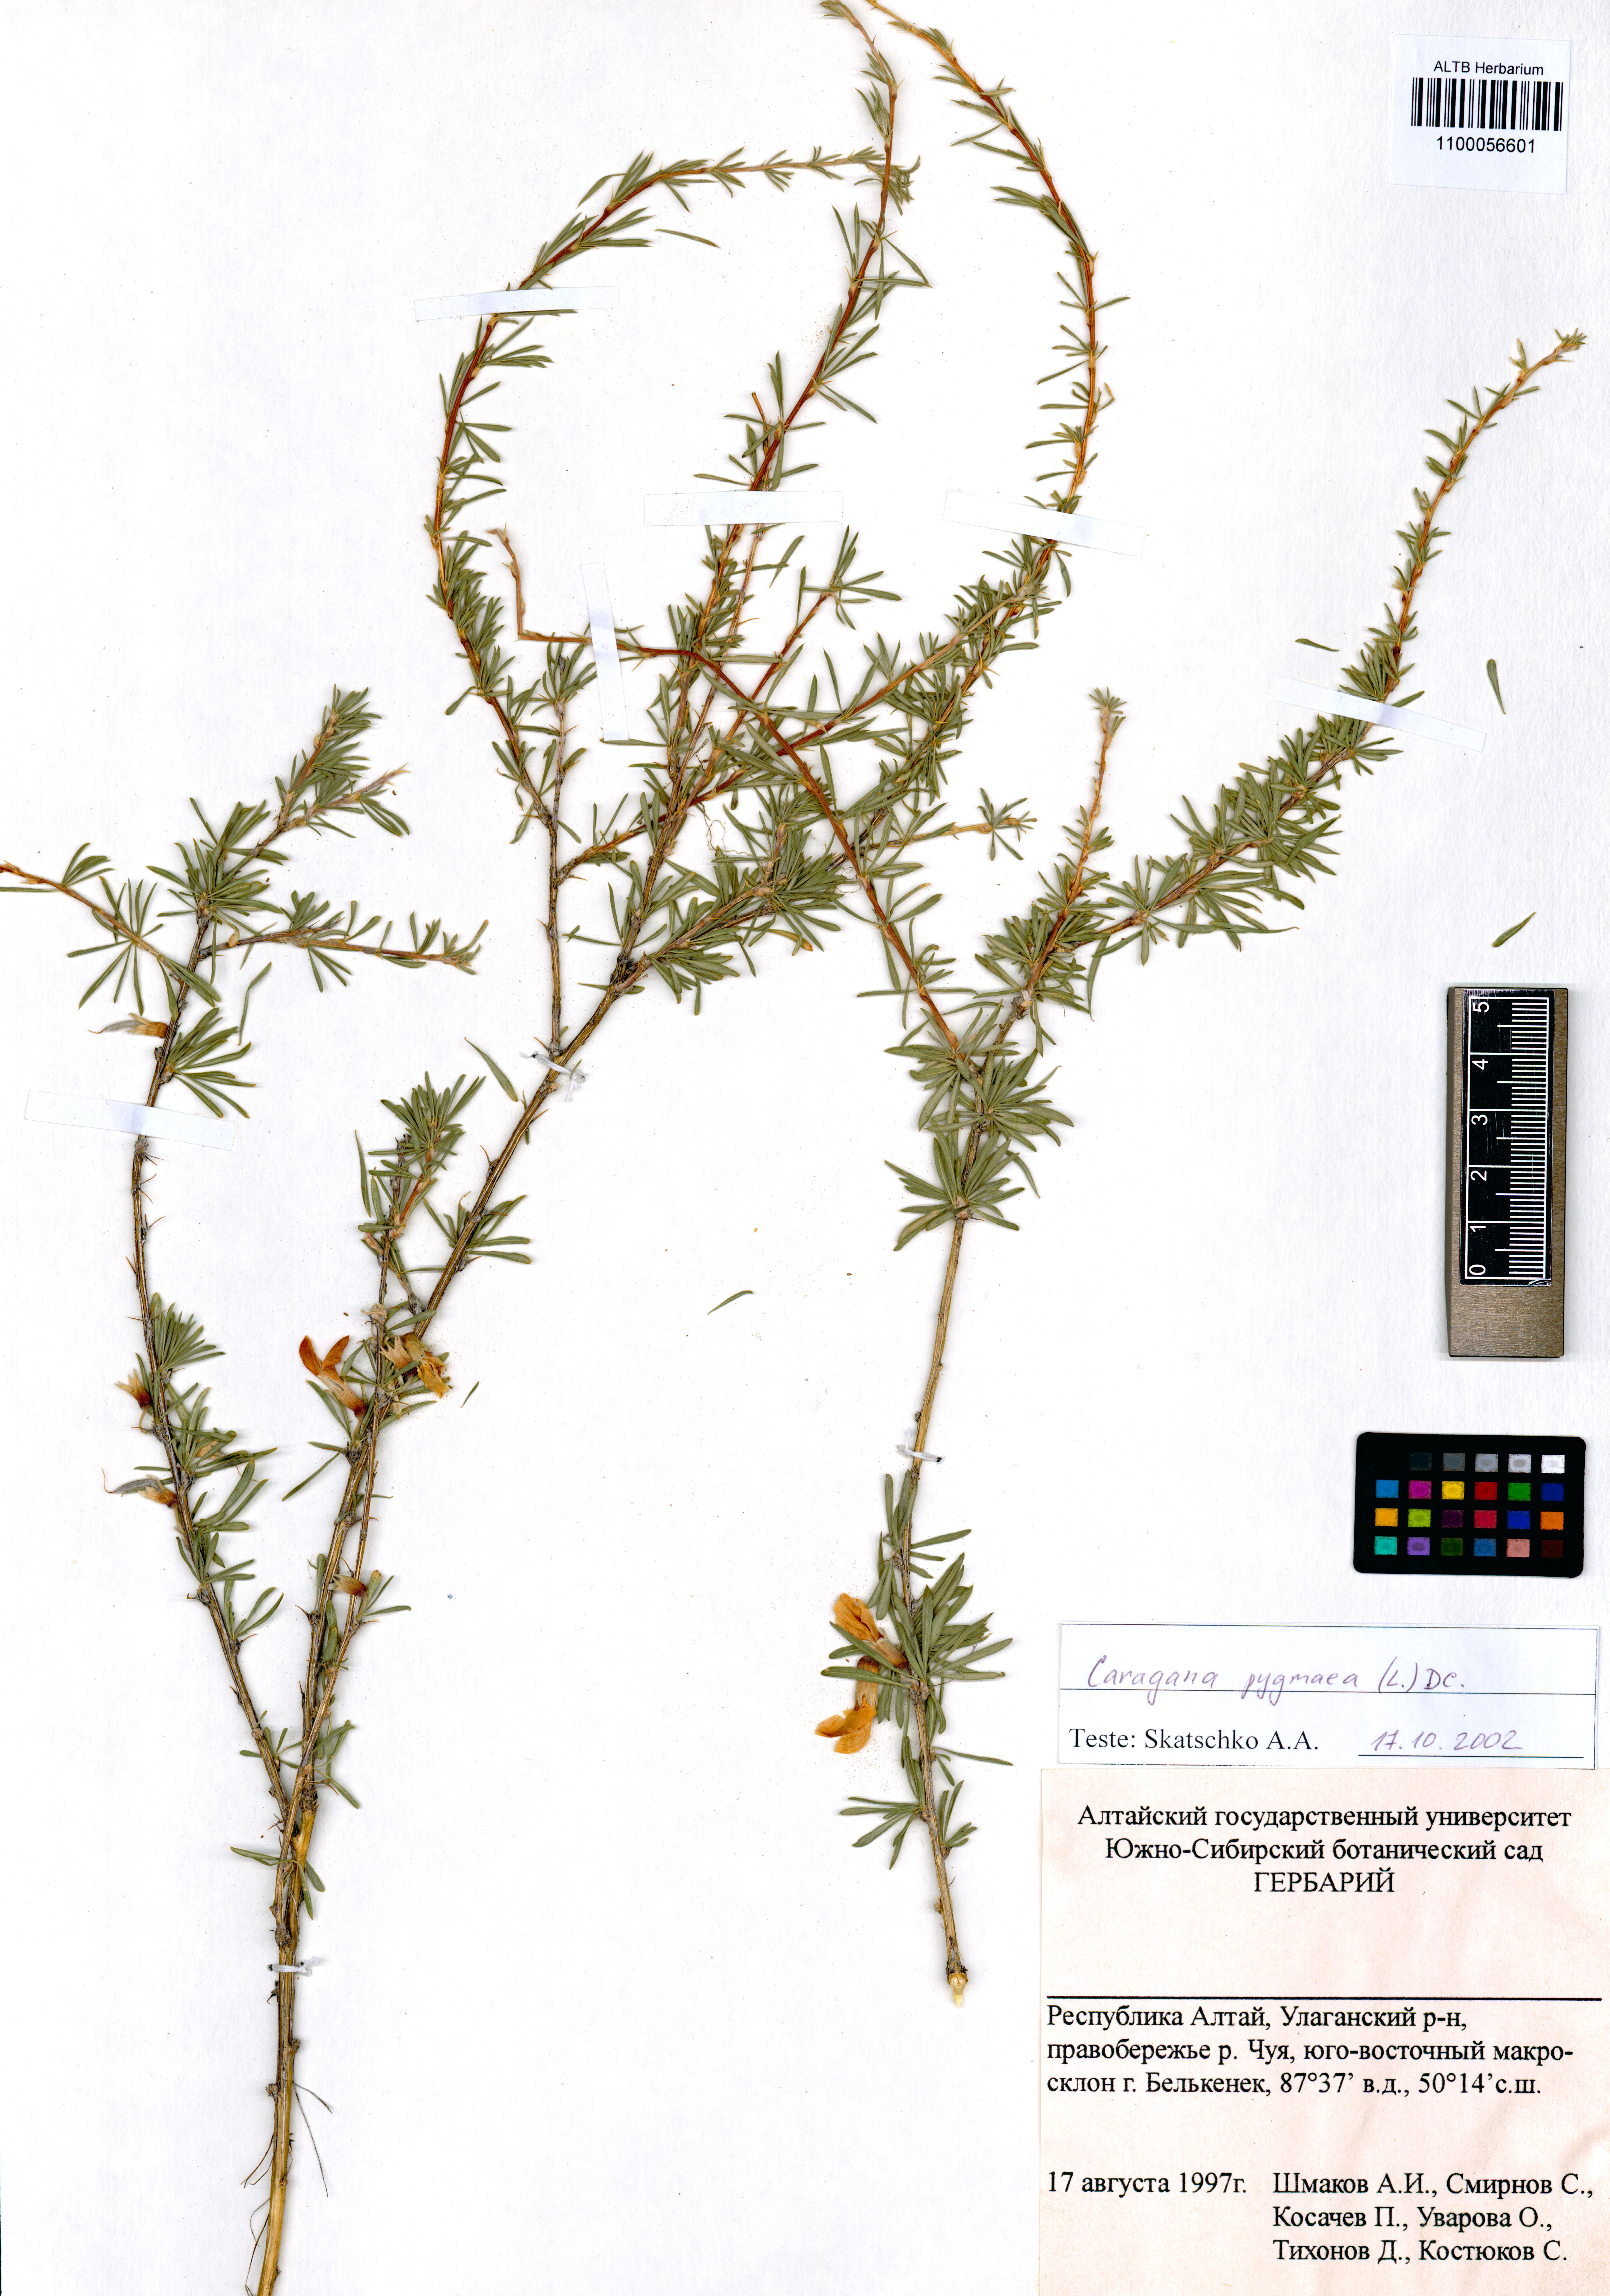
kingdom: Plantae
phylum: Tracheophyta
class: Magnoliopsida
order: Fabales
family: Fabaceae
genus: Caragana
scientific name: Caragana pygmaea
